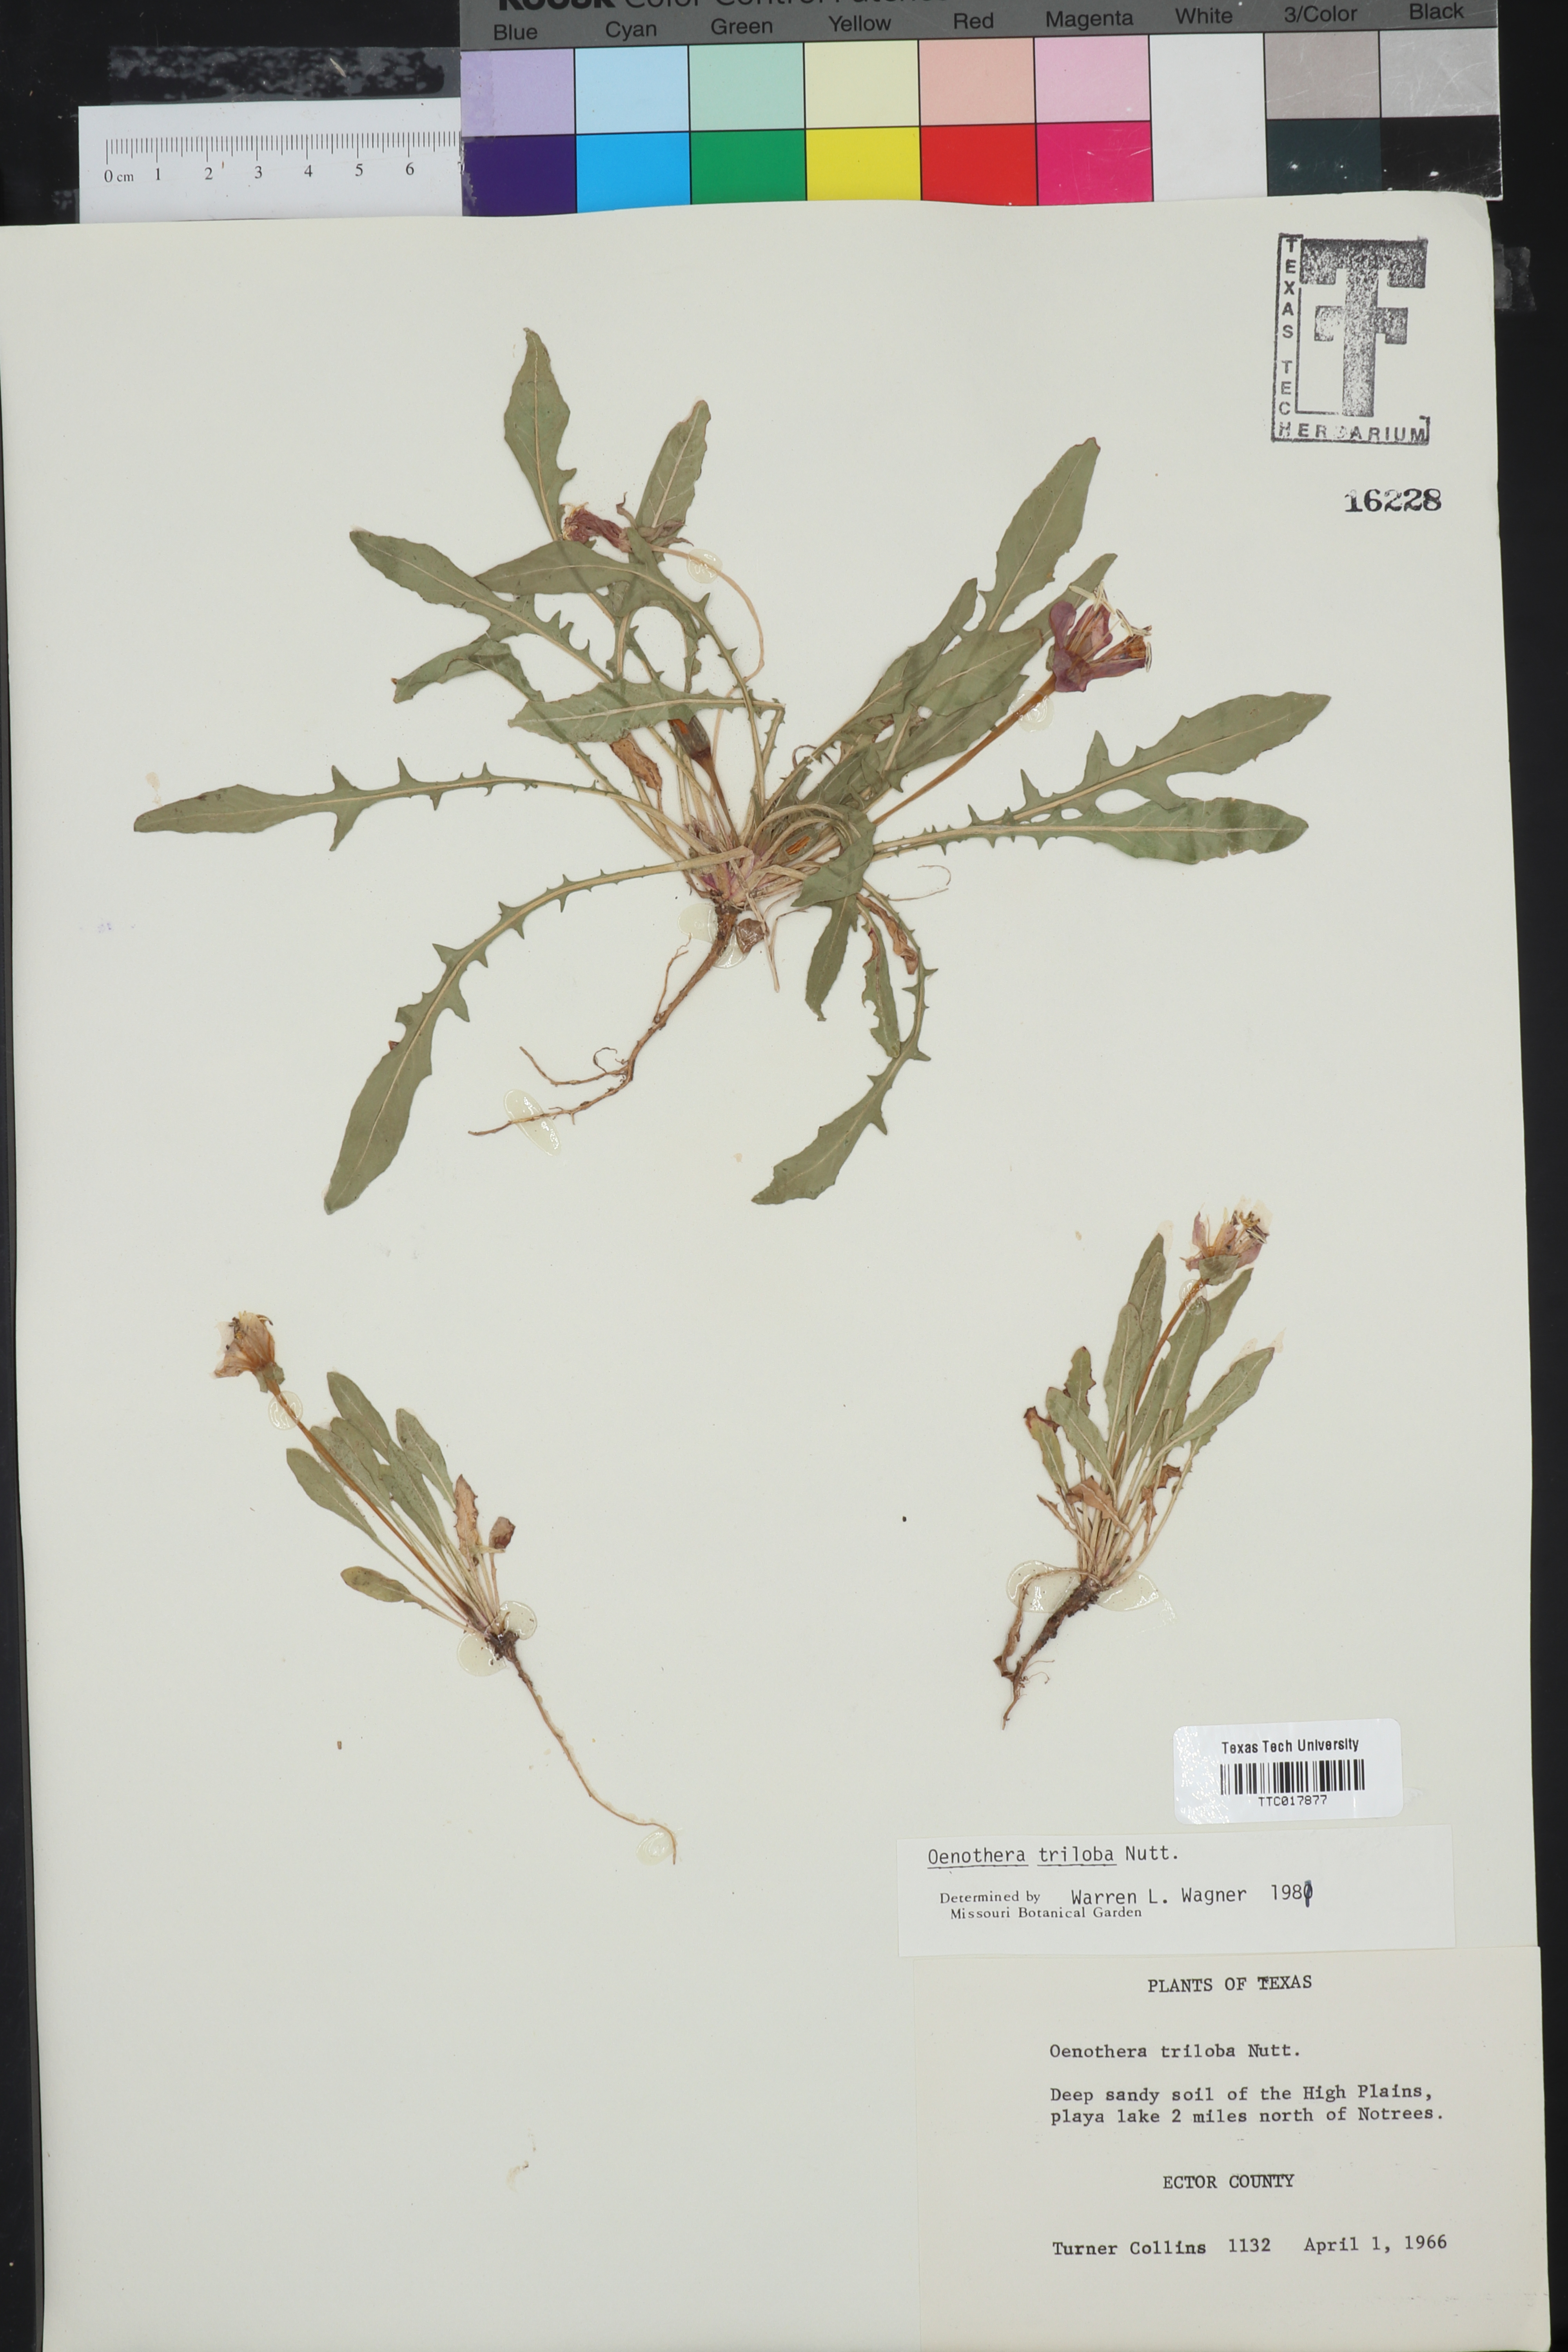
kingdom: Plantae
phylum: Tracheophyta
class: Magnoliopsida
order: Myrtales
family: Onagraceae
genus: Oenothera
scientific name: Oenothera triloba
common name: Sessile evening-primrose
